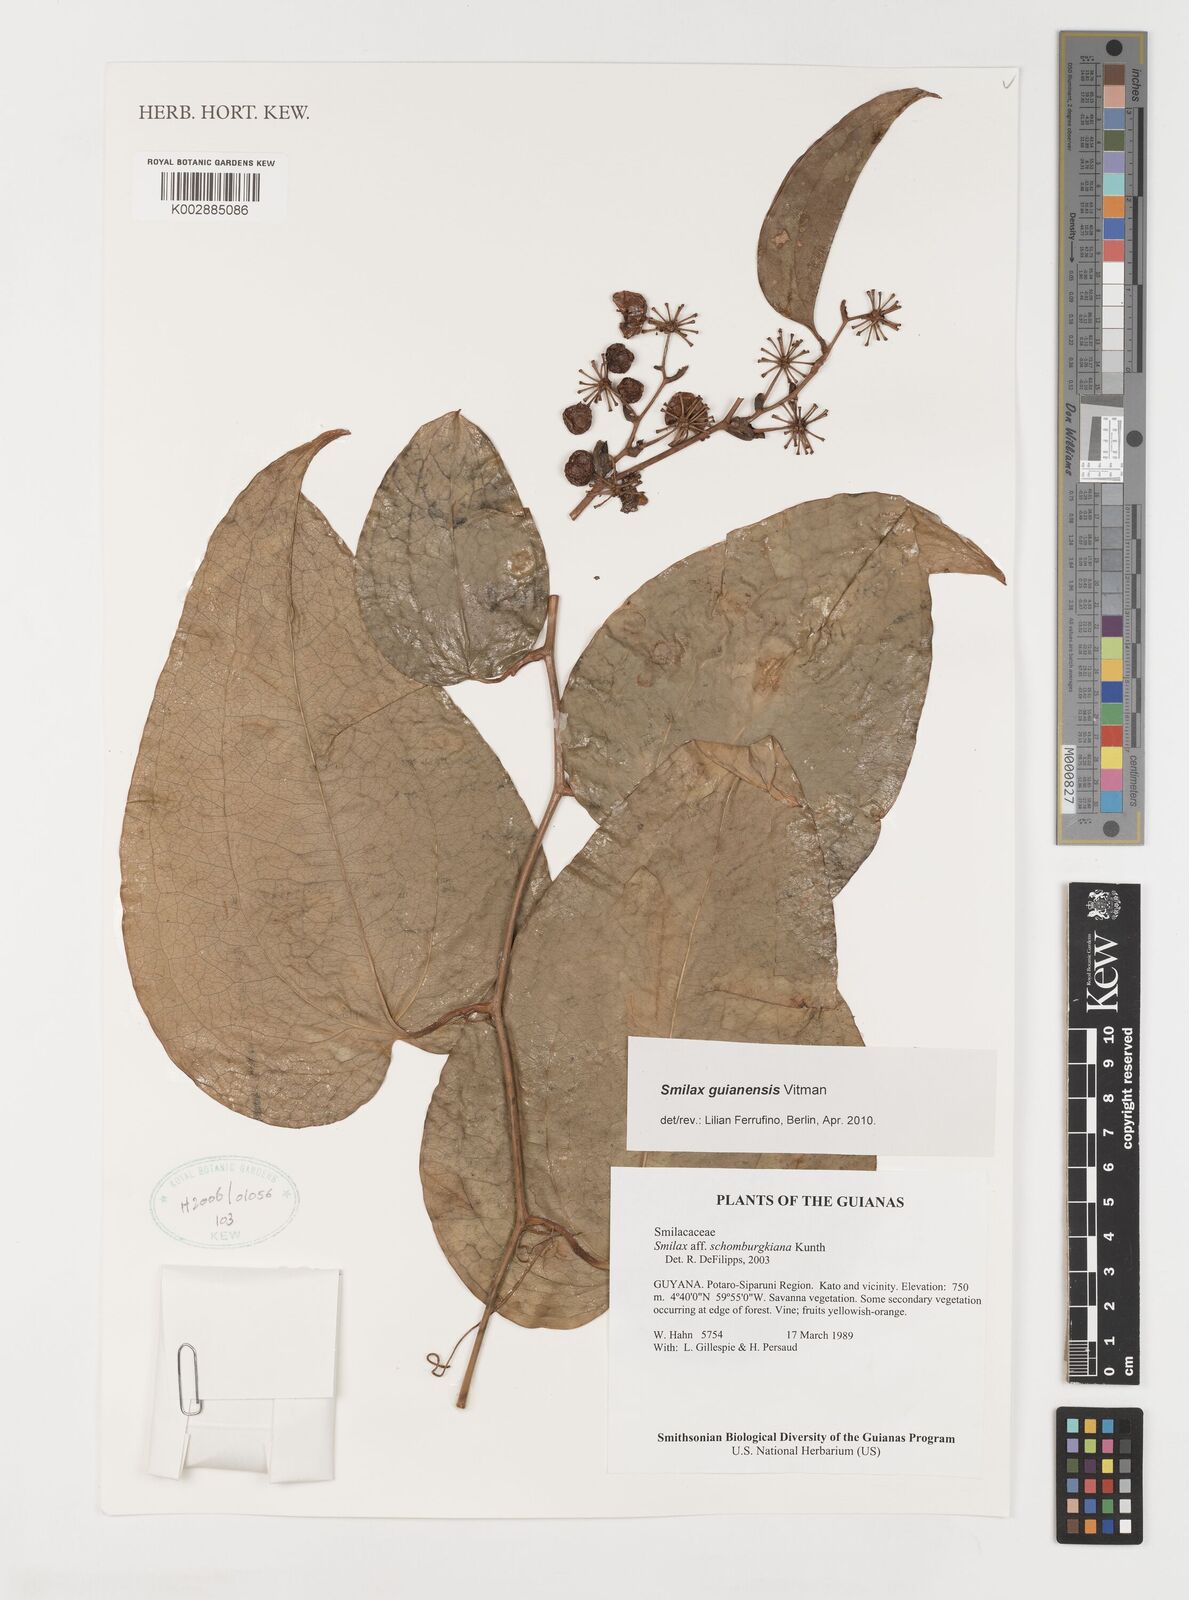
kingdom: Plantae
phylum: Tracheophyta
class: Liliopsida
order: Liliales
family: Smilacaceae
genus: Smilax
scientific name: Smilax guianensis
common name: Basket hoop
